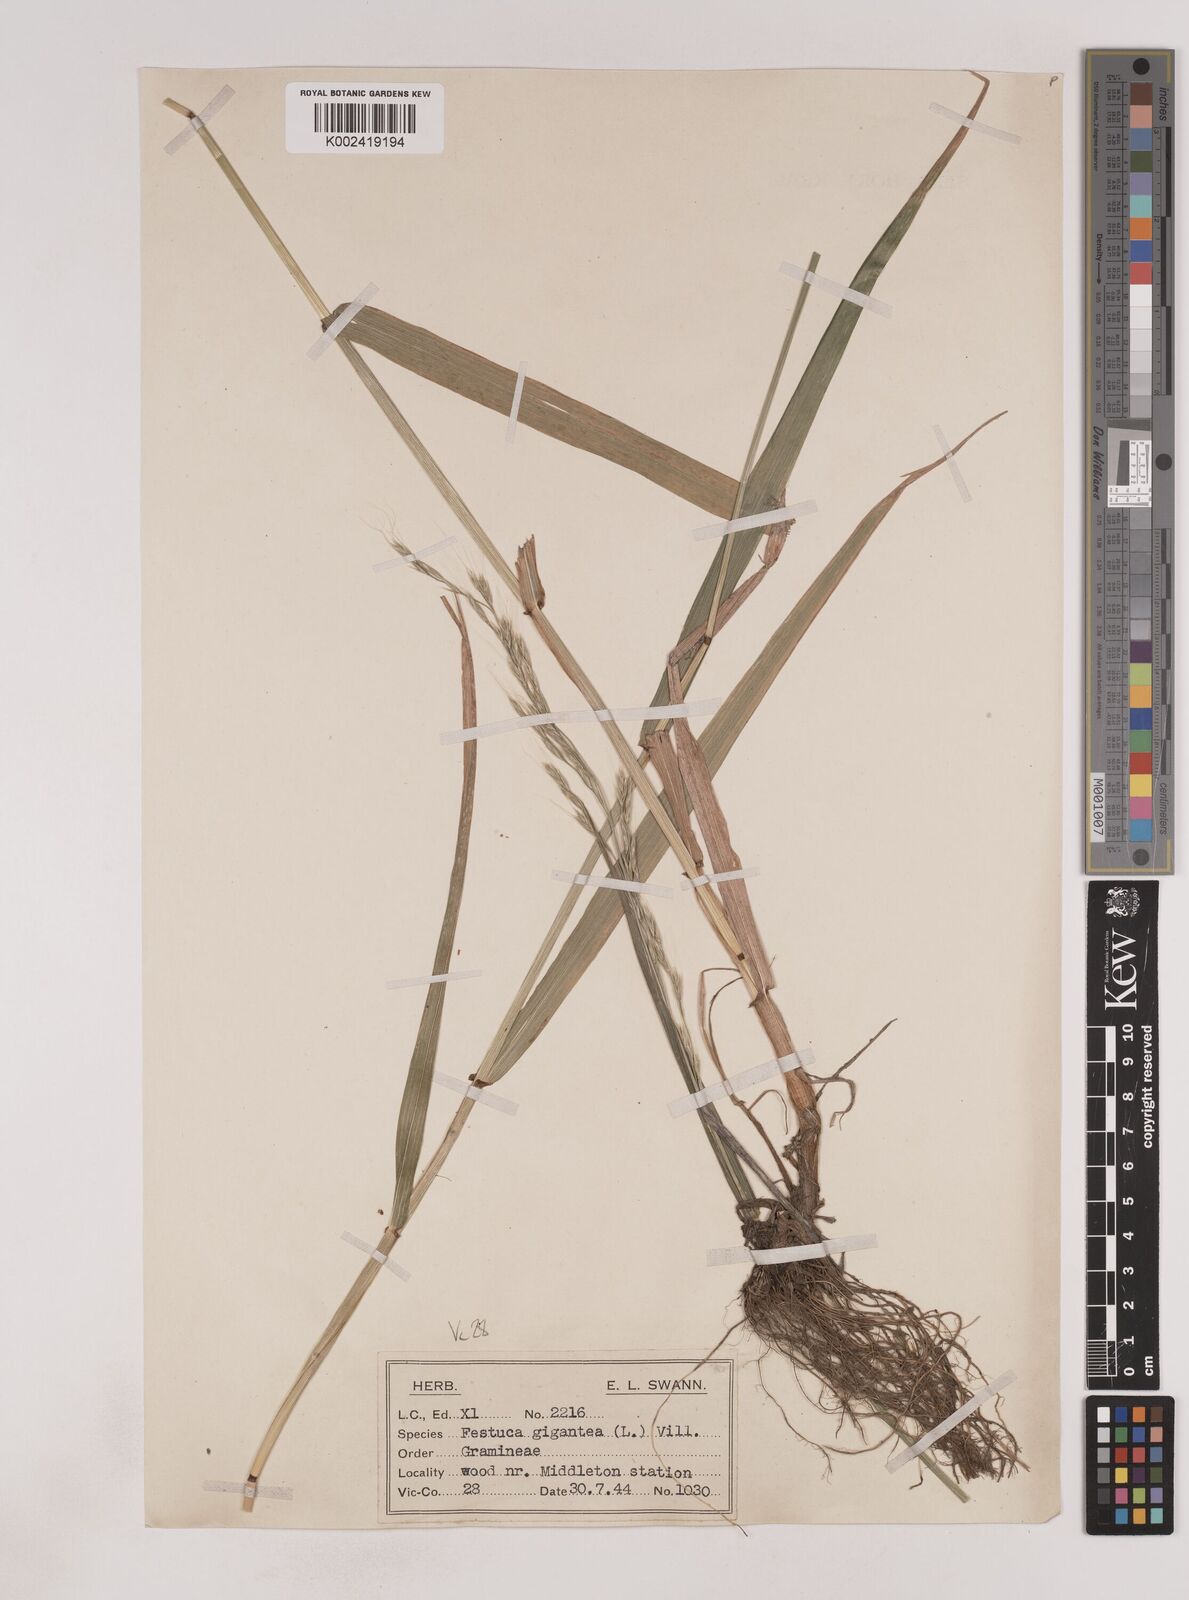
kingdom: Plantae
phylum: Tracheophyta
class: Liliopsida
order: Poales
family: Poaceae
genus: Lolium
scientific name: Lolium giganteum
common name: Giant fescue
